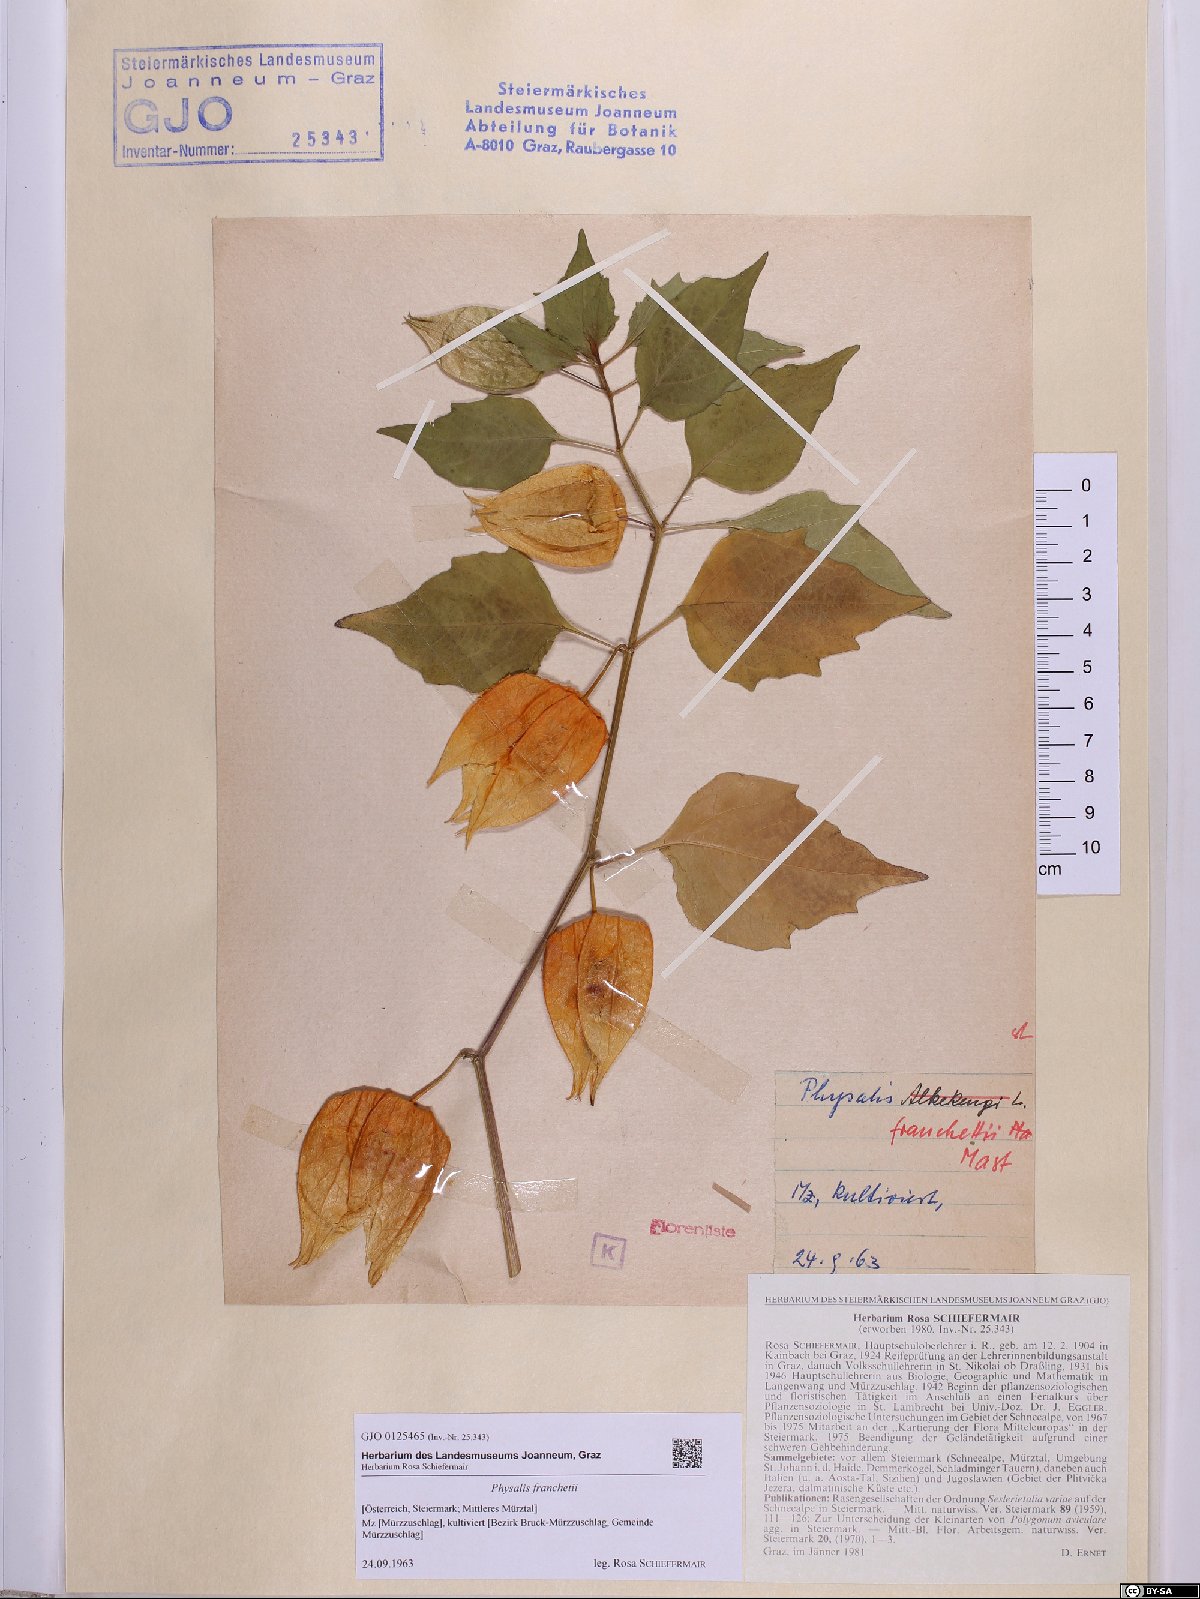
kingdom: Plantae
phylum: Tracheophyta
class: Magnoliopsida
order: Solanales
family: Solanaceae
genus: Alkekengi
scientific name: Alkekengi officinarum
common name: Japanese-lantern
